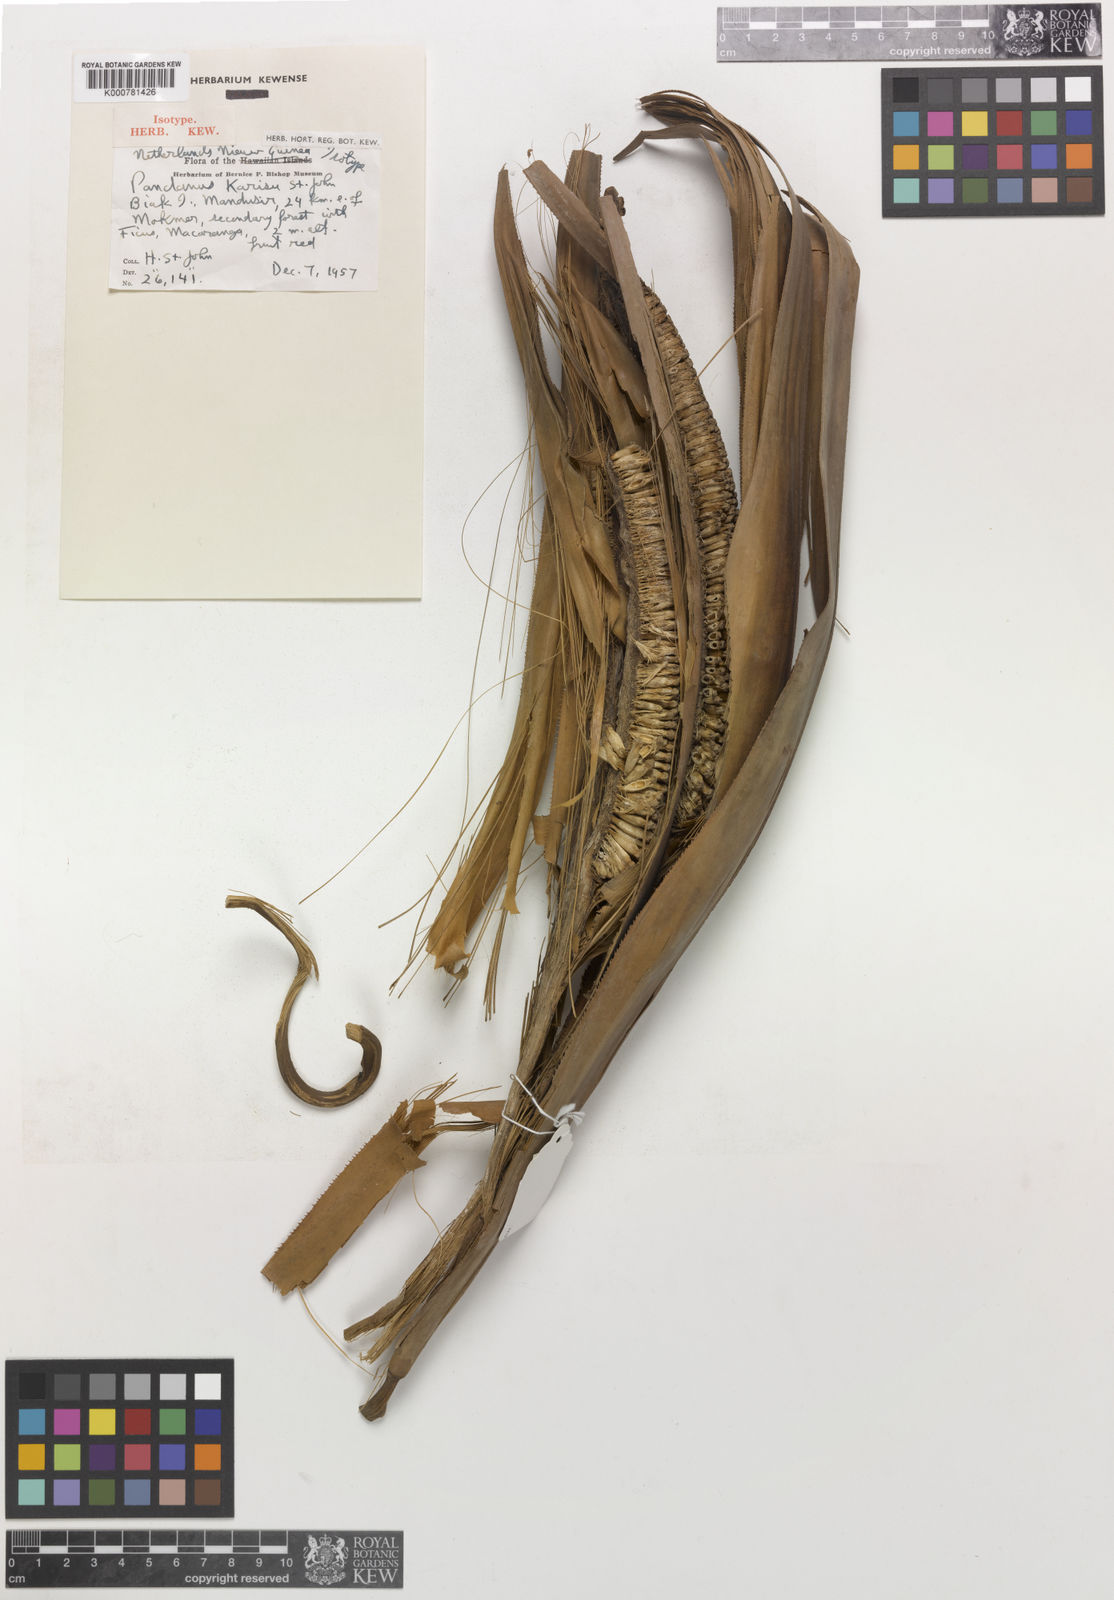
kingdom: Plantae
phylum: Tracheophyta
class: Liliopsida
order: Pandanales
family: Pandanaceae
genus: Pandanus
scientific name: Pandanus
